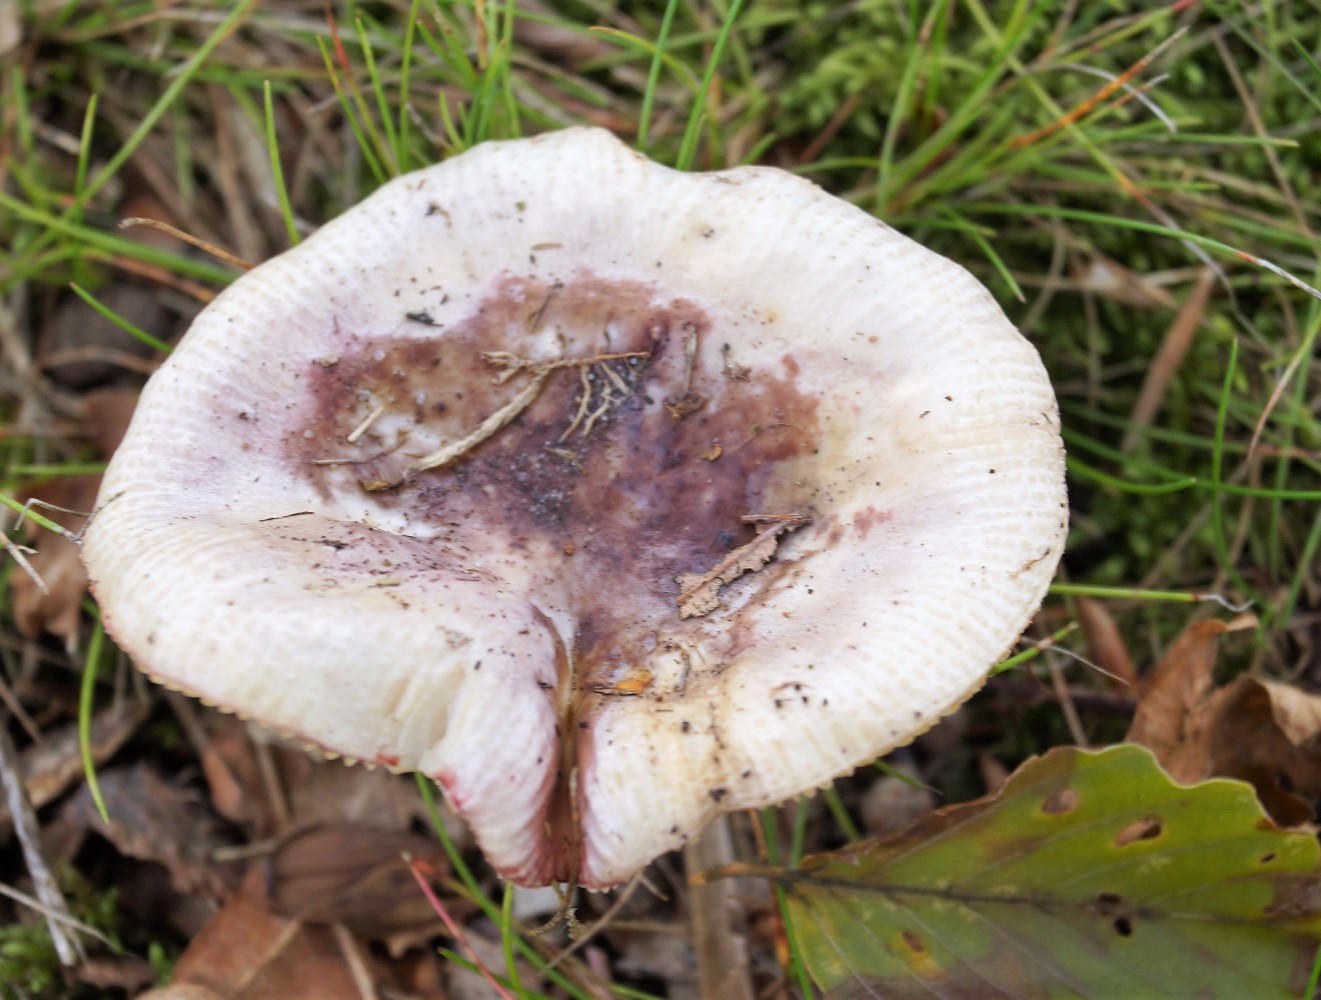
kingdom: Fungi
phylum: Basidiomycota
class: Agaricomycetes
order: Russulales
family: Russulaceae
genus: Russula
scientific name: Russula atropurpurea
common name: purpurbroget skørhat
